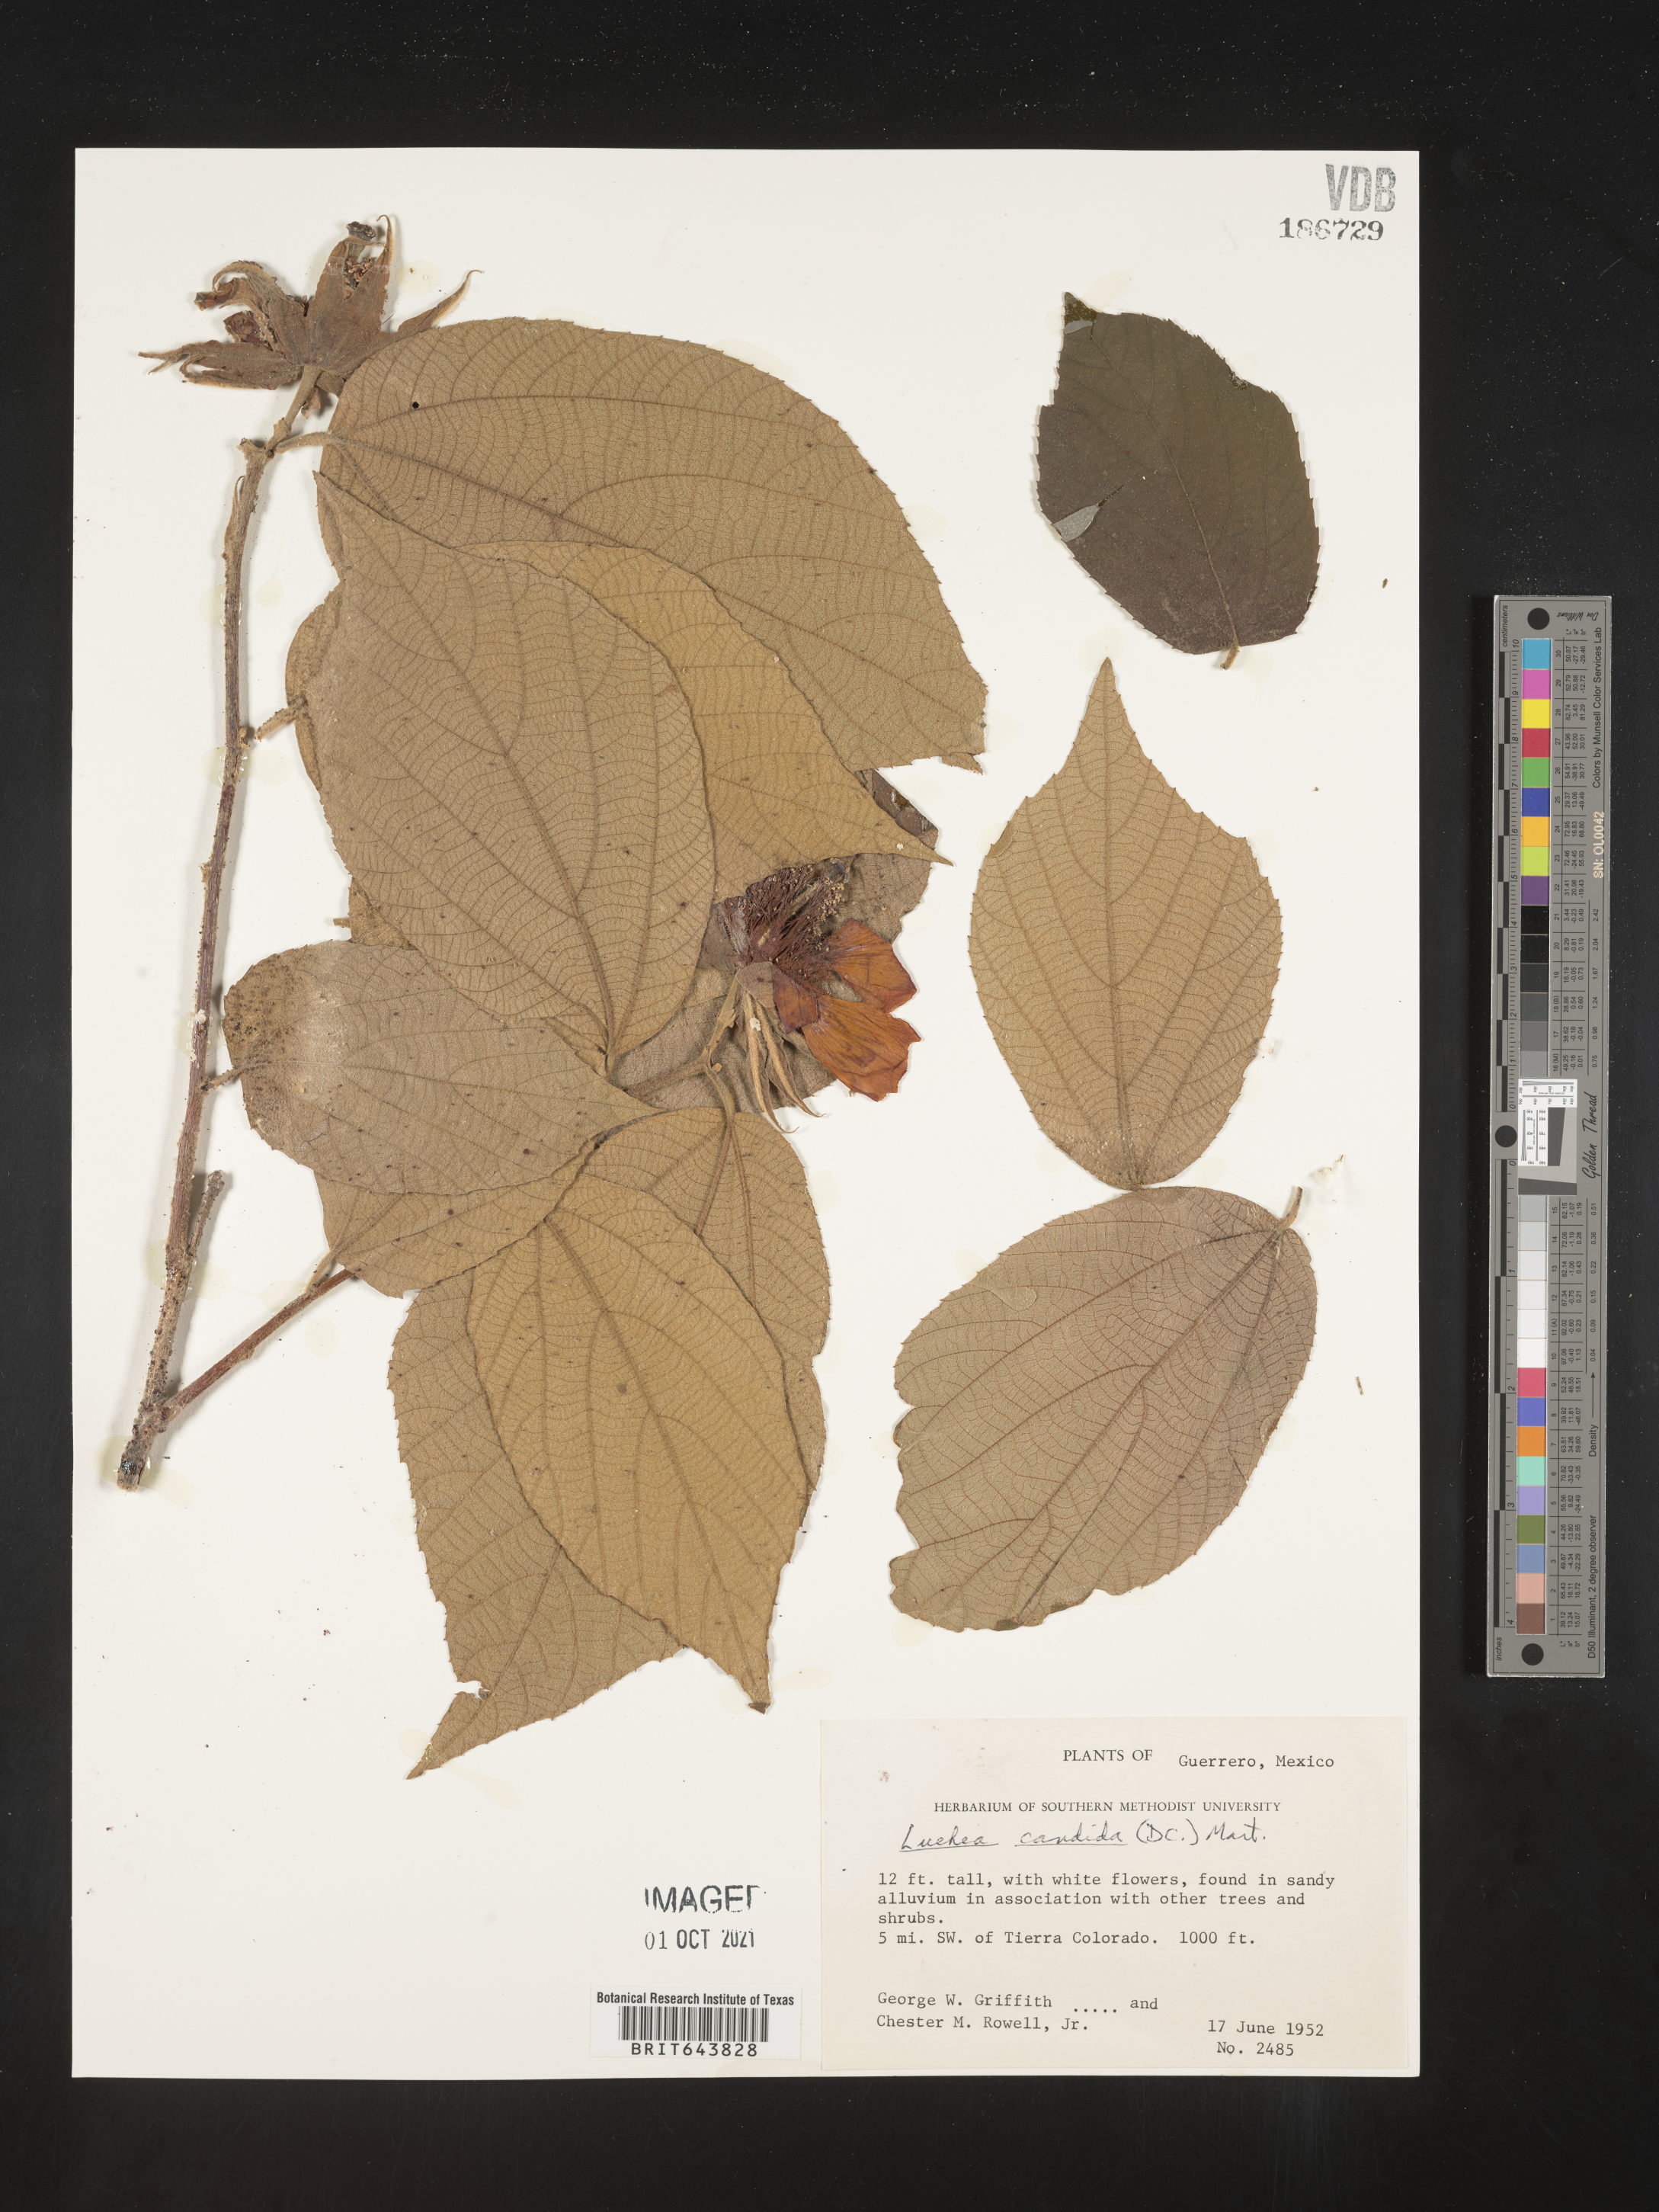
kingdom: Plantae
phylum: Tracheophyta
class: Magnoliopsida
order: Malvales
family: Malvaceae
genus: Luehea
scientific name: Luehea
